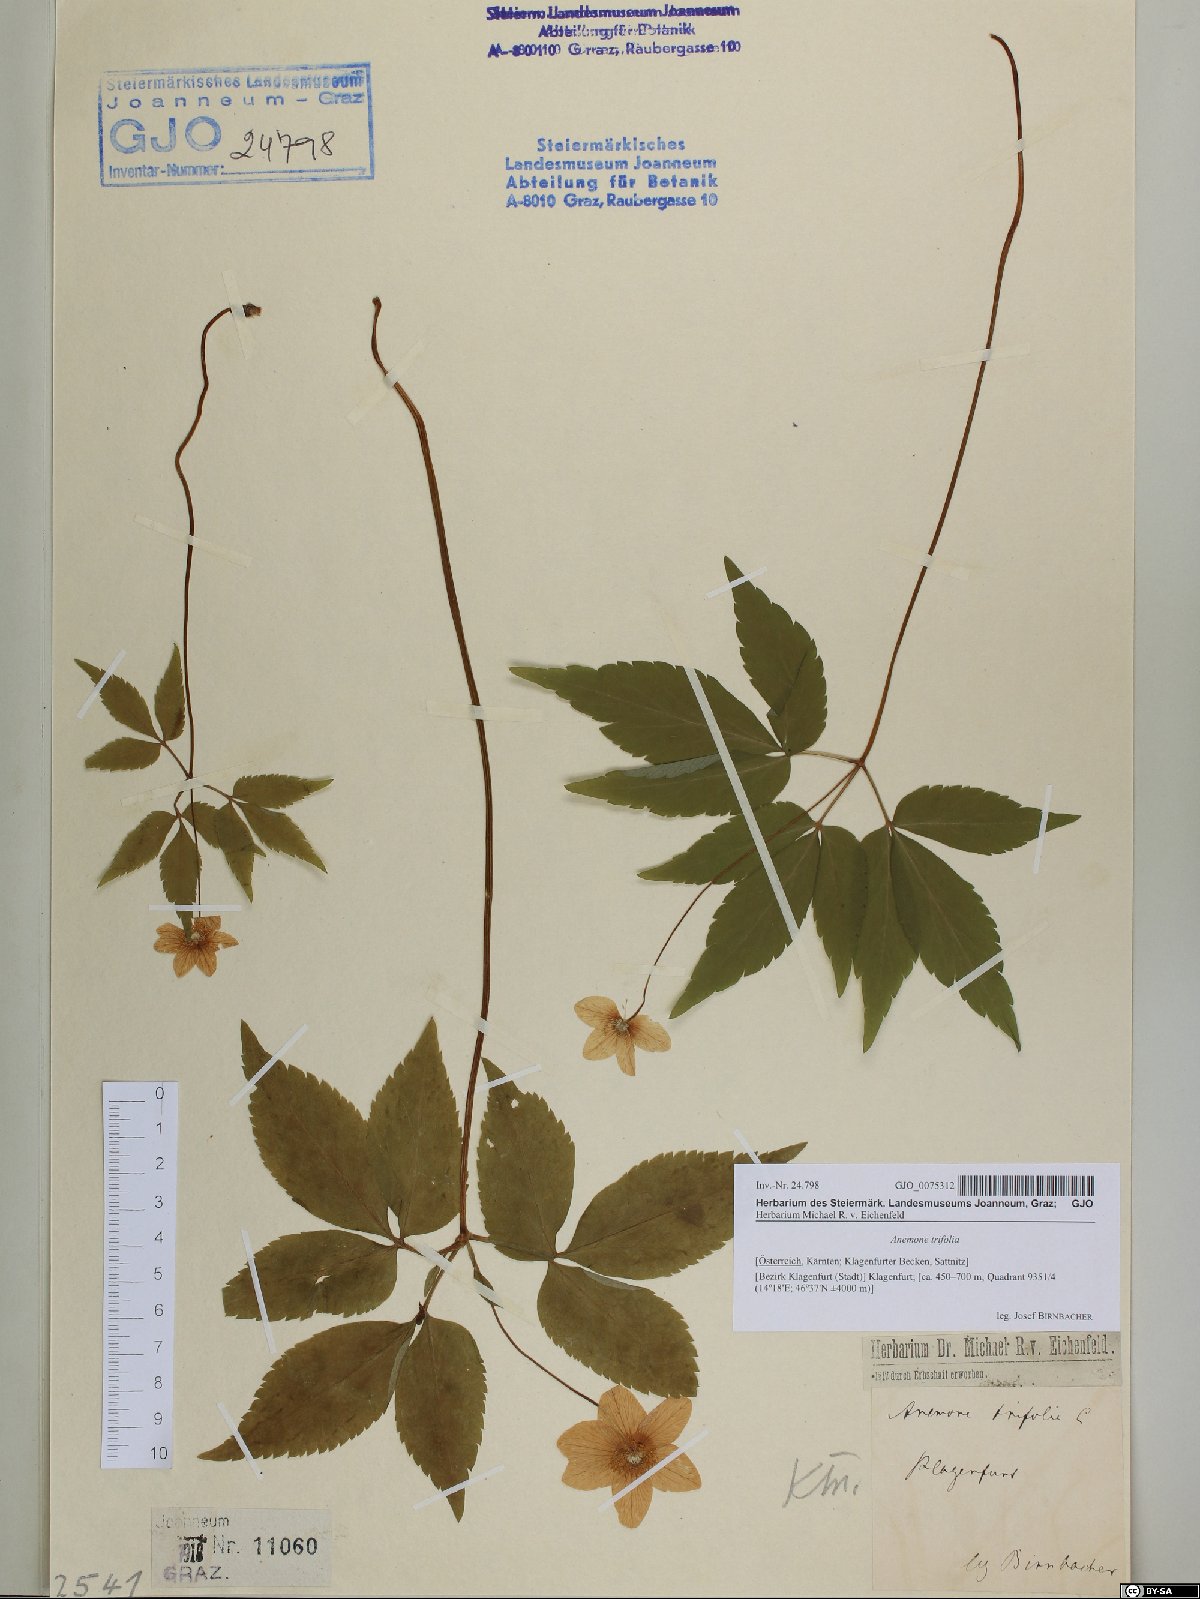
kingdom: Plantae
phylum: Tracheophyta
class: Magnoliopsida
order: Ranunculales
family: Ranunculaceae
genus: Anemone
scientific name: Anemone trifolia
